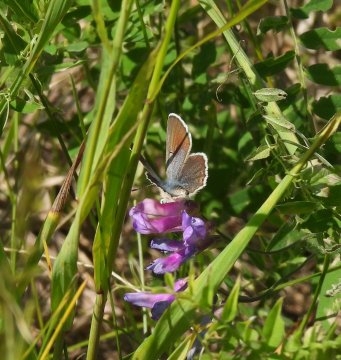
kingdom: Animalia
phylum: Arthropoda
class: Insecta
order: Lepidoptera
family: Lycaenidae
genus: Glaucopsyche
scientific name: Glaucopsyche lygdamus
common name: Silvery Blue
